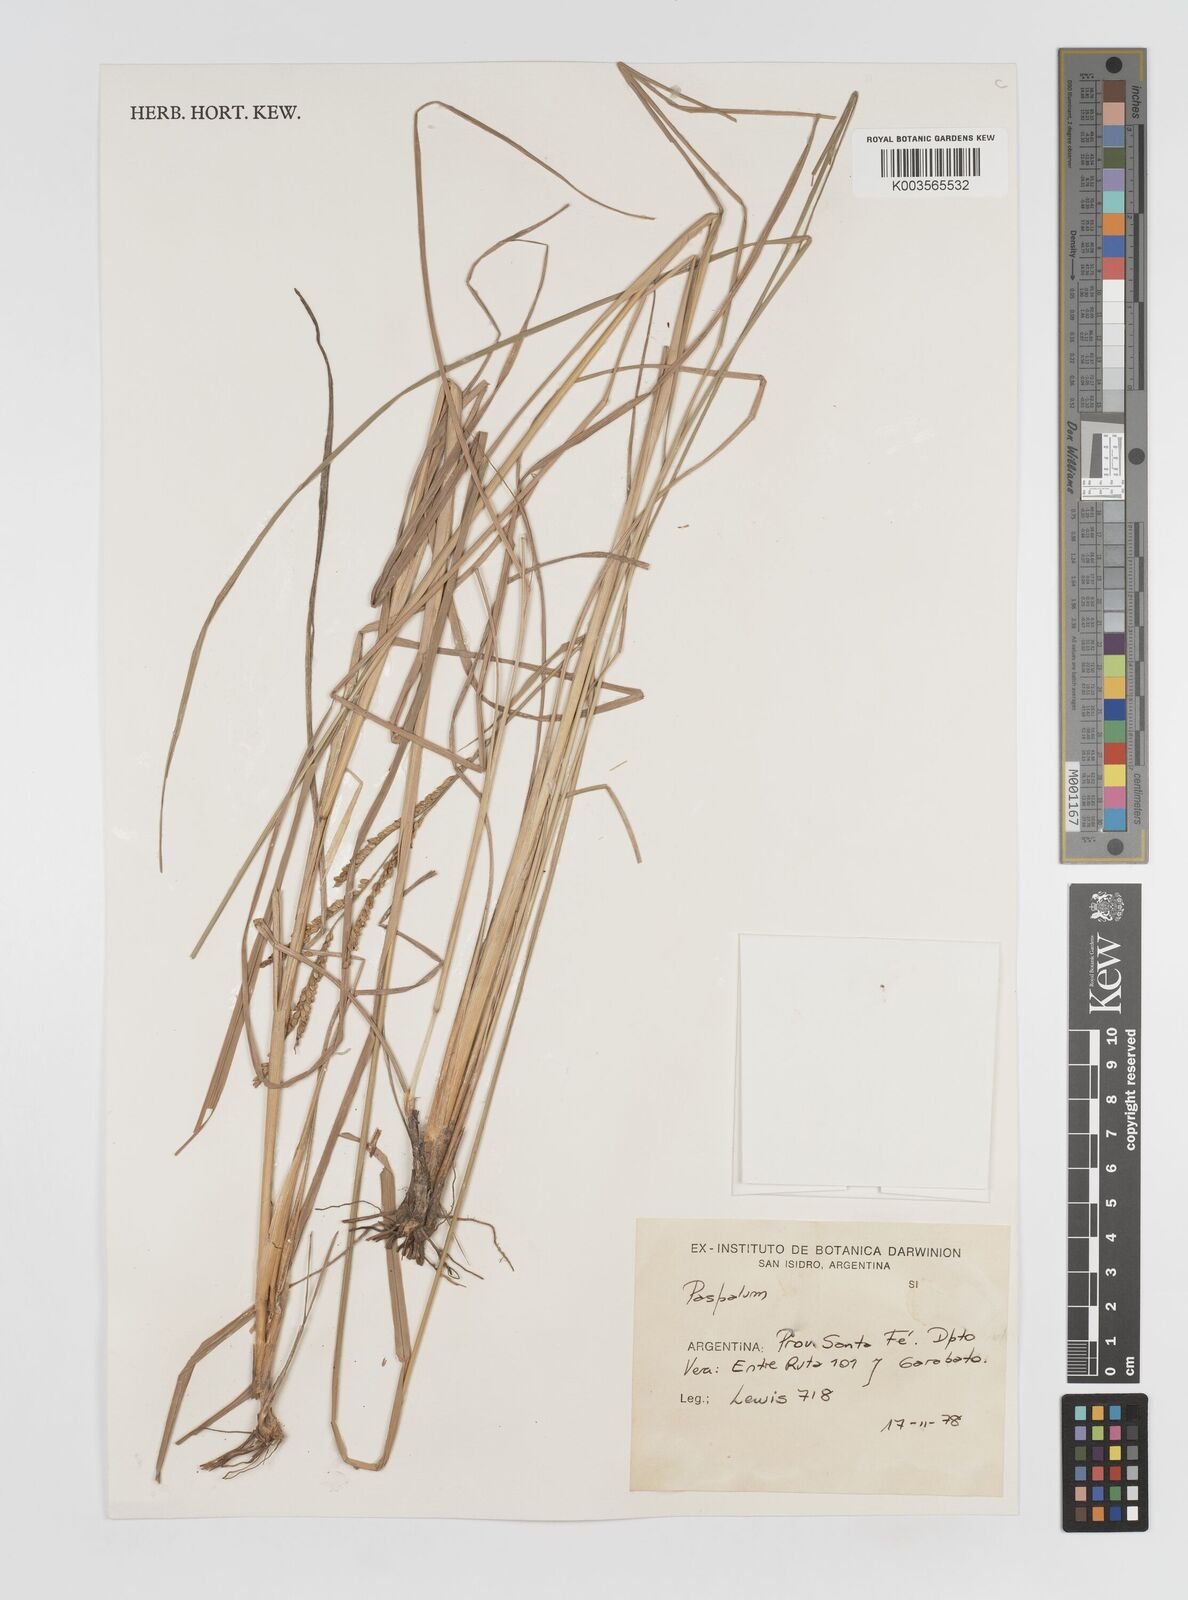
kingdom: Plantae
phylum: Tracheophyta
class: Liliopsida
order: Poales
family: Poaceae
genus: Paspalum
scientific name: Paspalum
